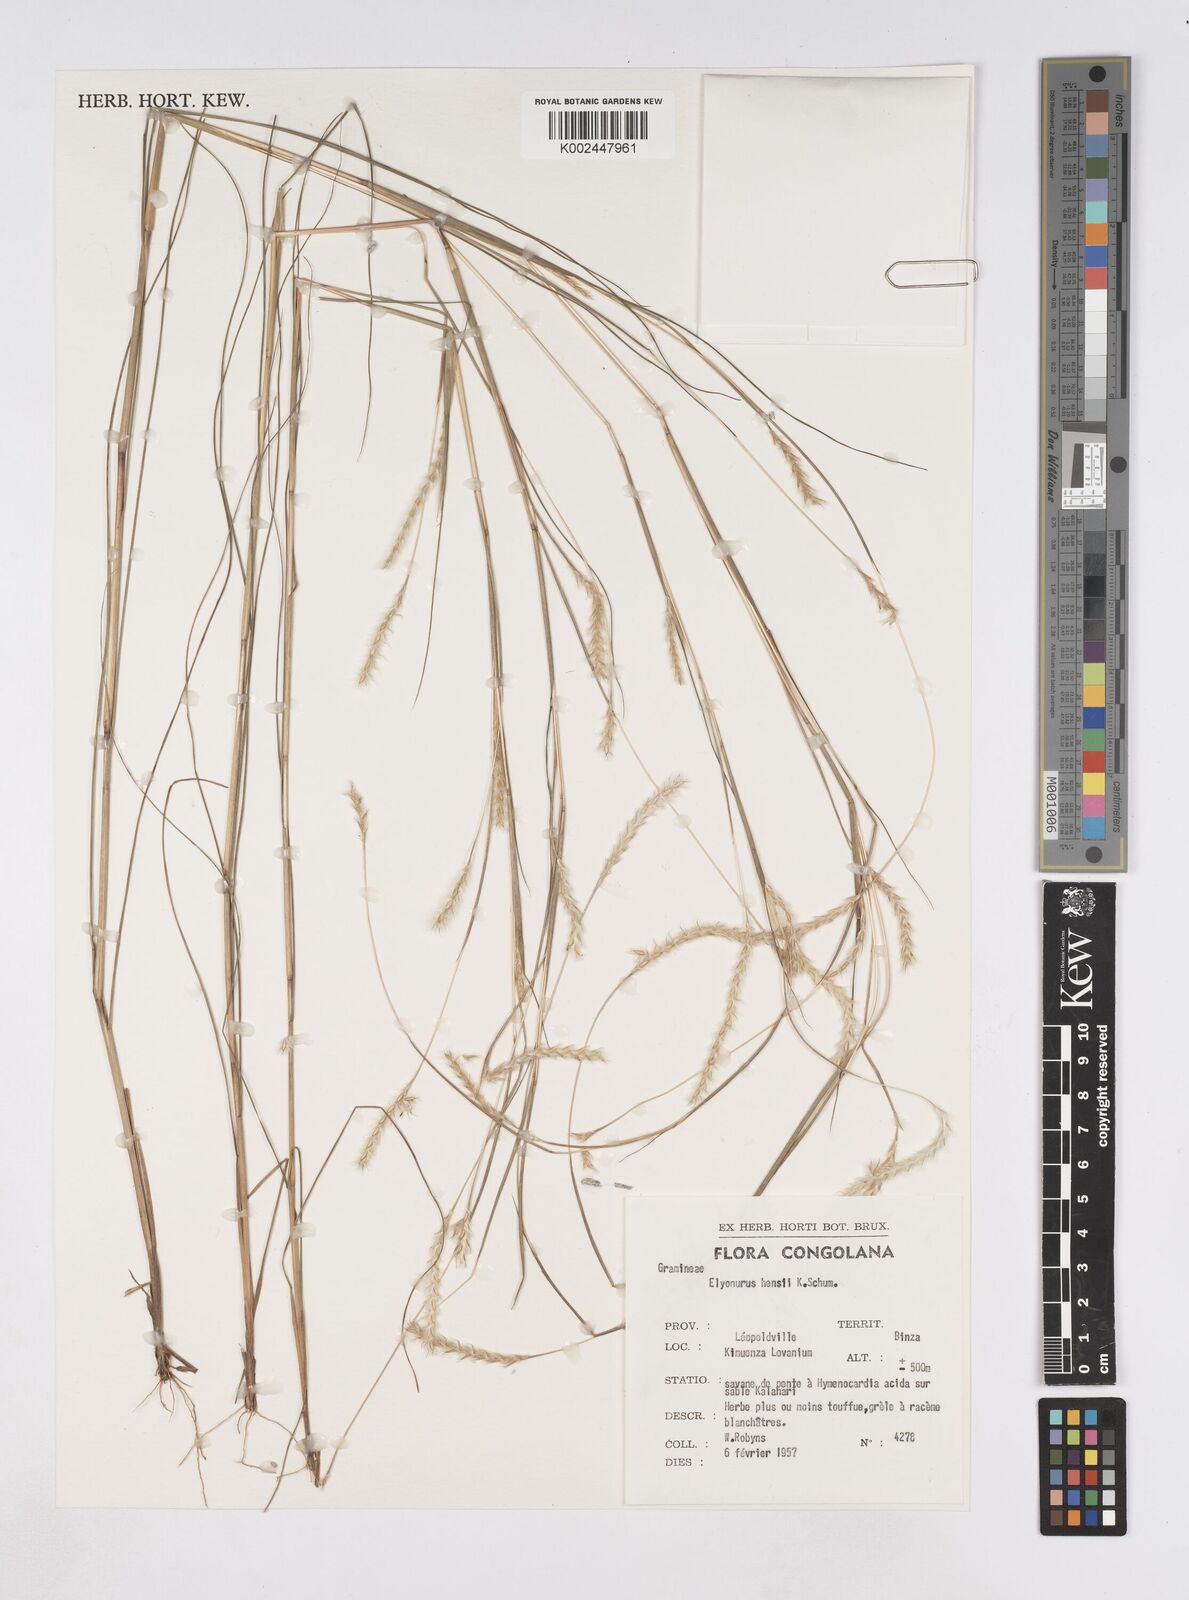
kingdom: Plantae
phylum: Tracheophyta
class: Liliopsida
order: Poales
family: Poaceae
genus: Elionurus
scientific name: Elionurus hensii
